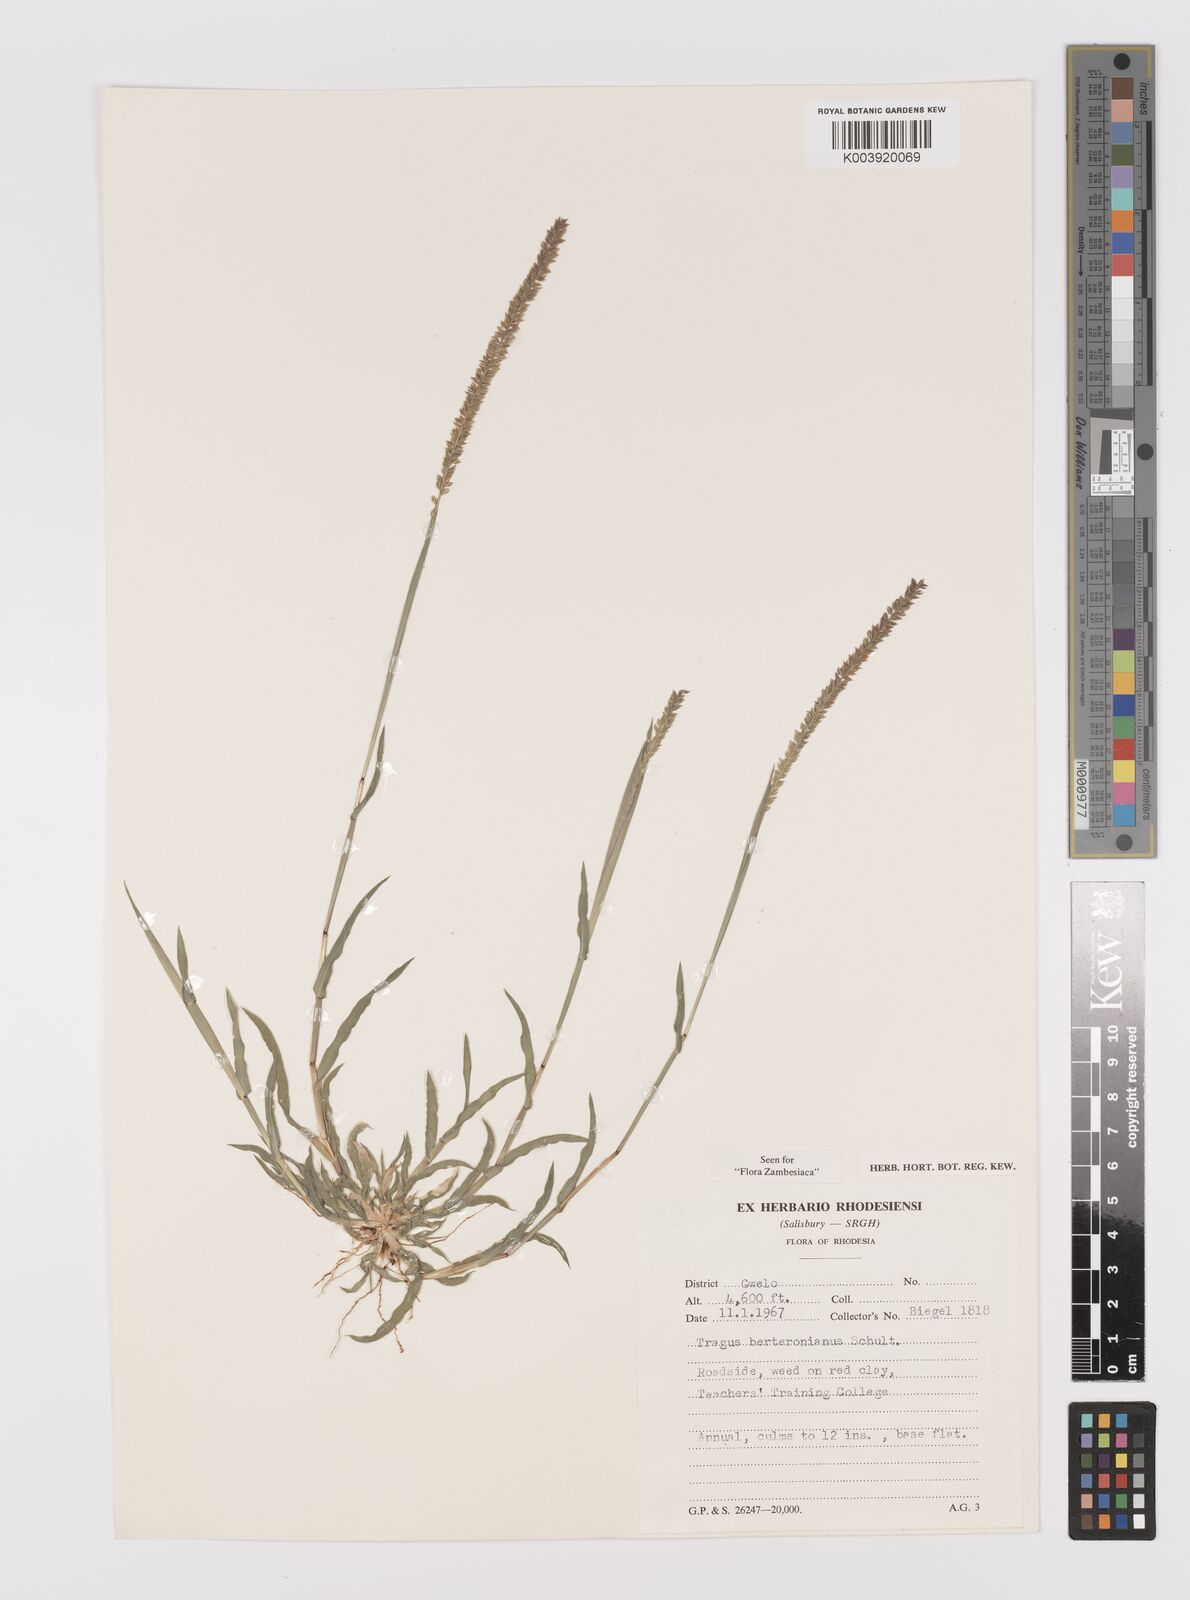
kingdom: Plantae
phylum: Tracheophyta
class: Liliopsida
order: Poales
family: Poaceae
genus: Tragus
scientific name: Tragus berteronianus
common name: African bur-grass
